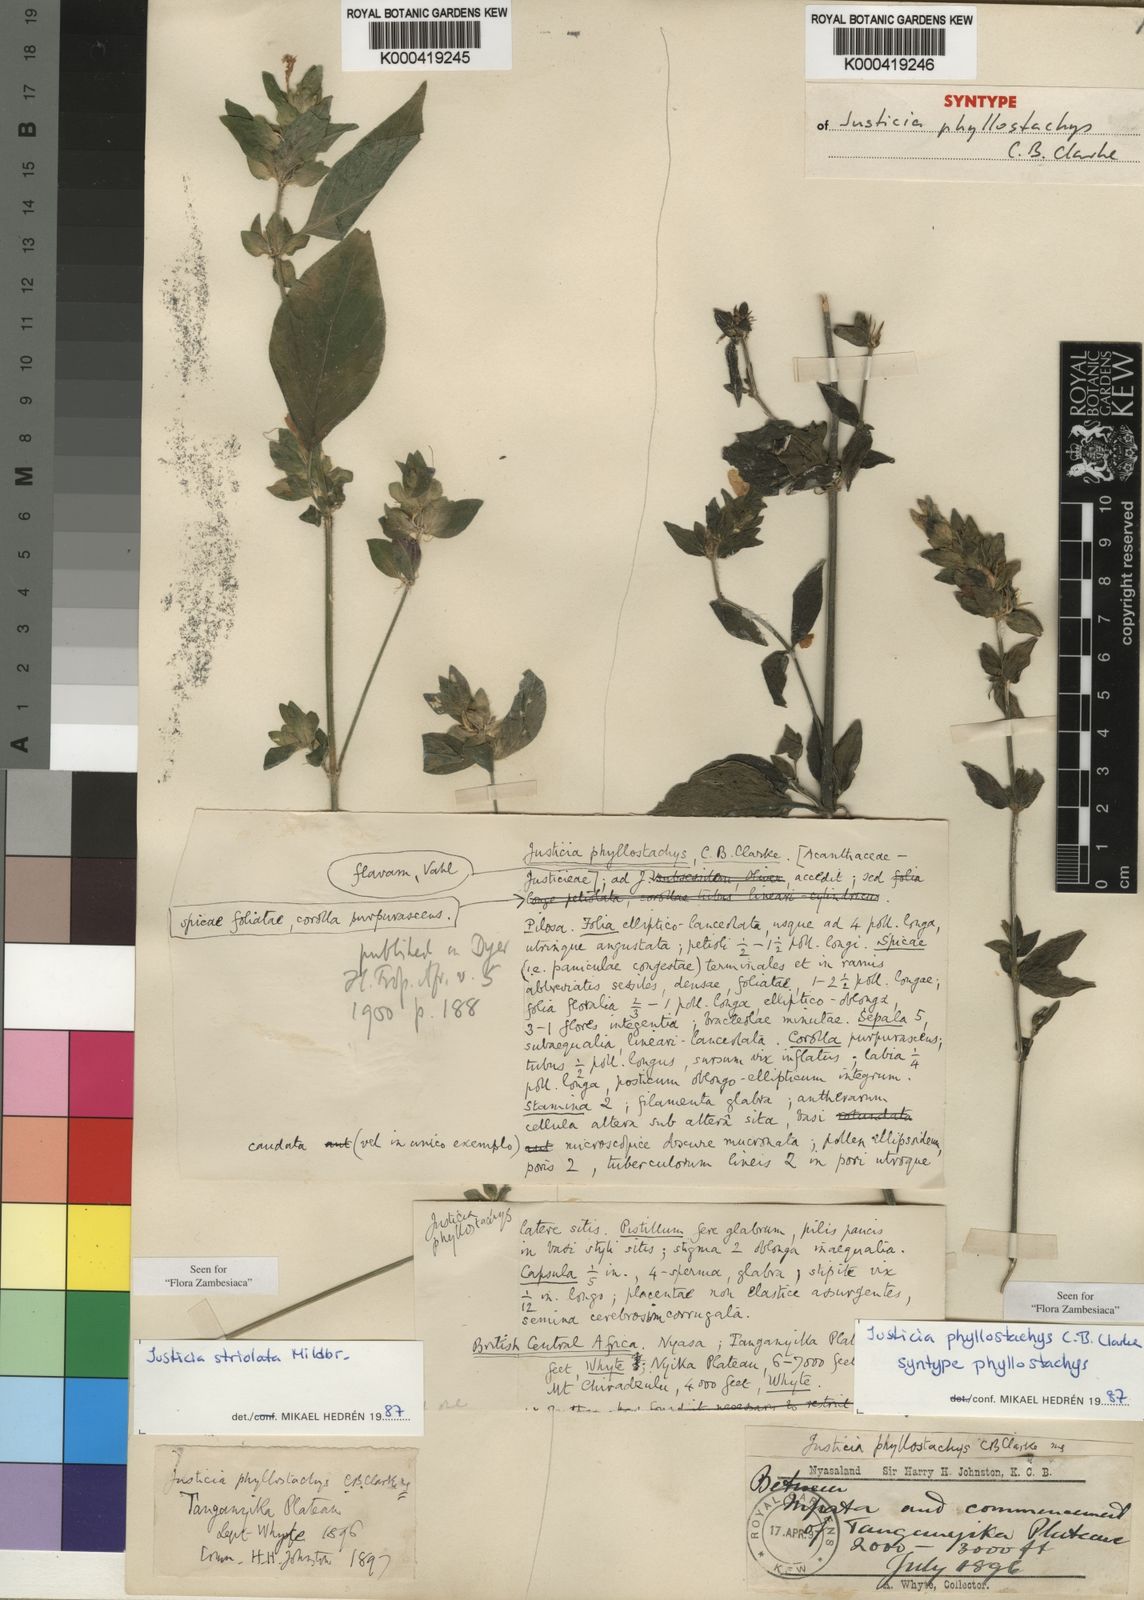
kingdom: Plantae
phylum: Tracheophyta
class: Magnoliopsida
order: Lamiales
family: Acanthaceae
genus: Justicia
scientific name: Justicia phyllostachys
